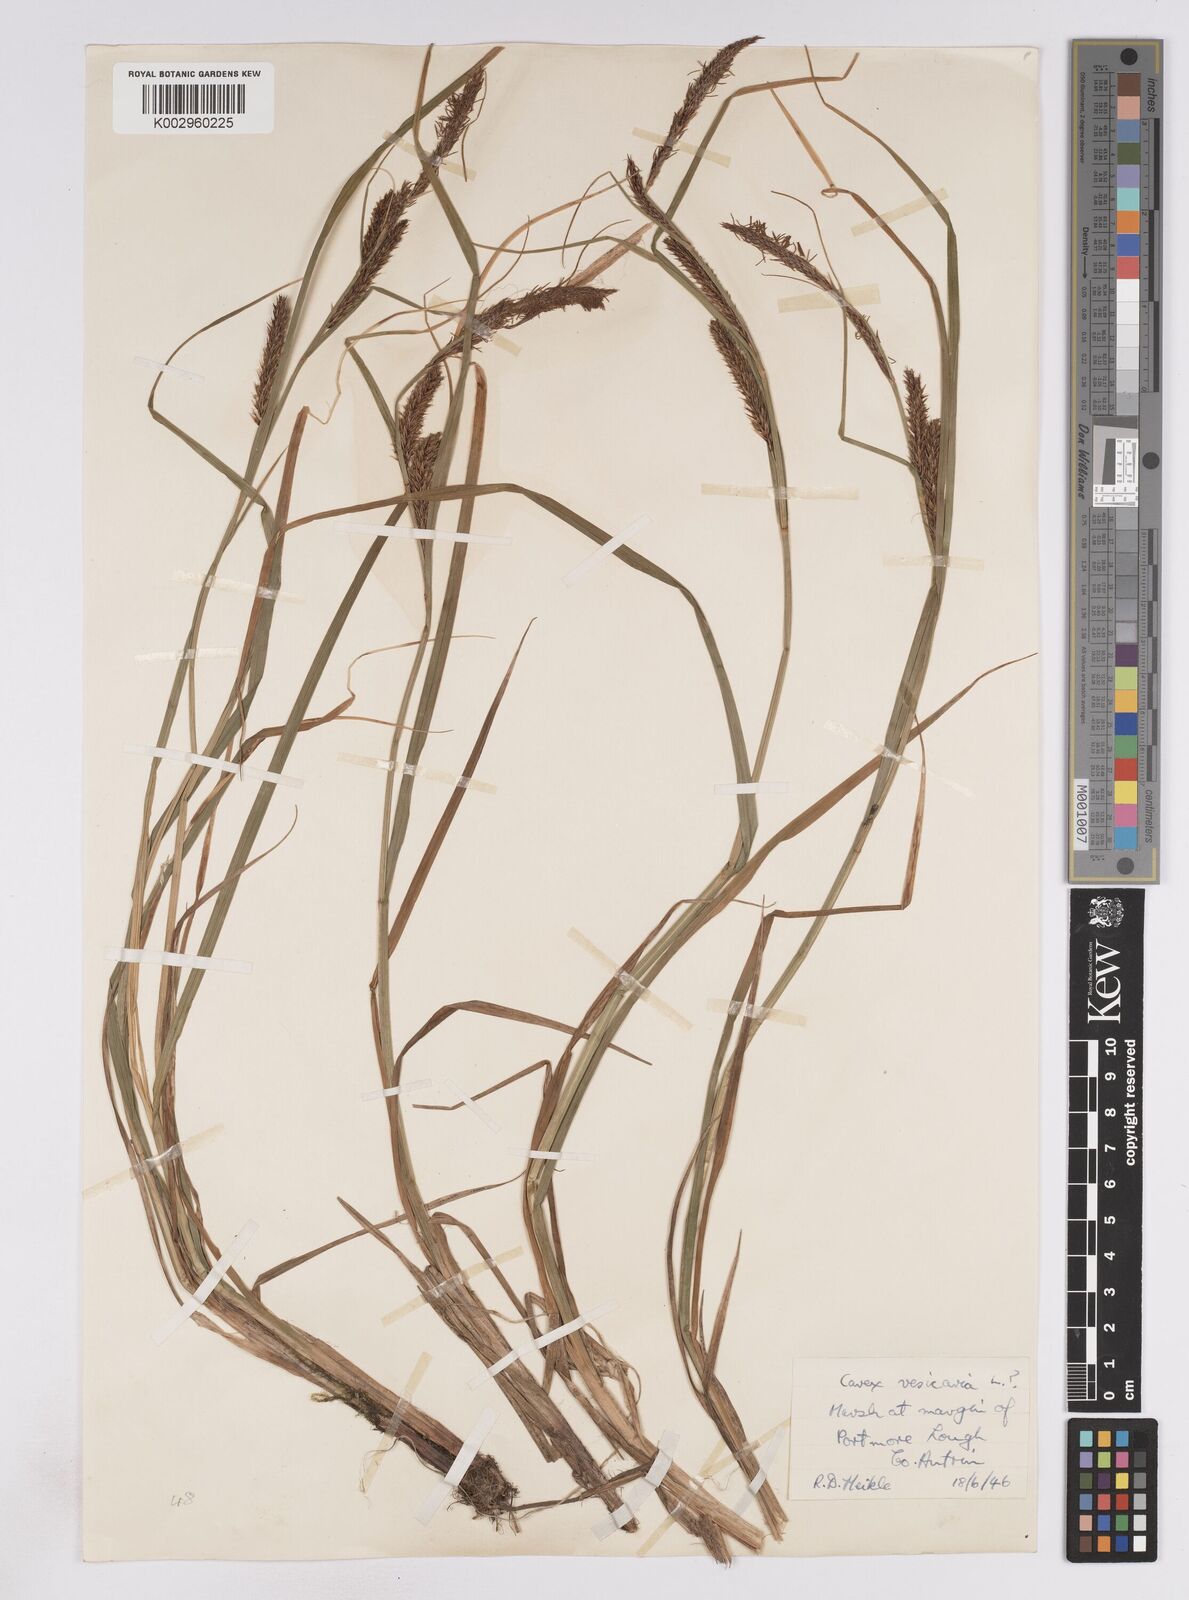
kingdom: Plantae
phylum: Tracheophyta
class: Liliopsida
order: Poales
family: Cyperaceae
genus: Carex
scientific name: Carex vesicaria
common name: Bladder-sedge
